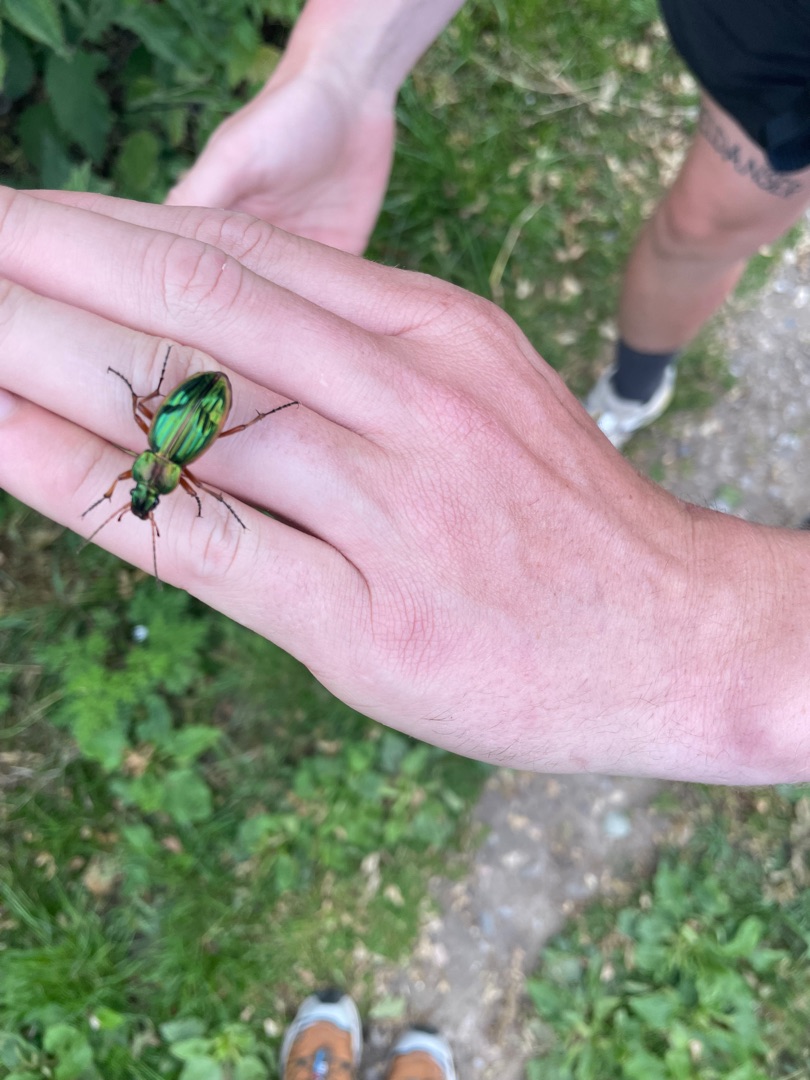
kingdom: Animalia
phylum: Arthropoda
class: Insecta
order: Coleoptera
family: Carabidae
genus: Carabus
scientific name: Carabus auratus
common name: Stor guldløber
